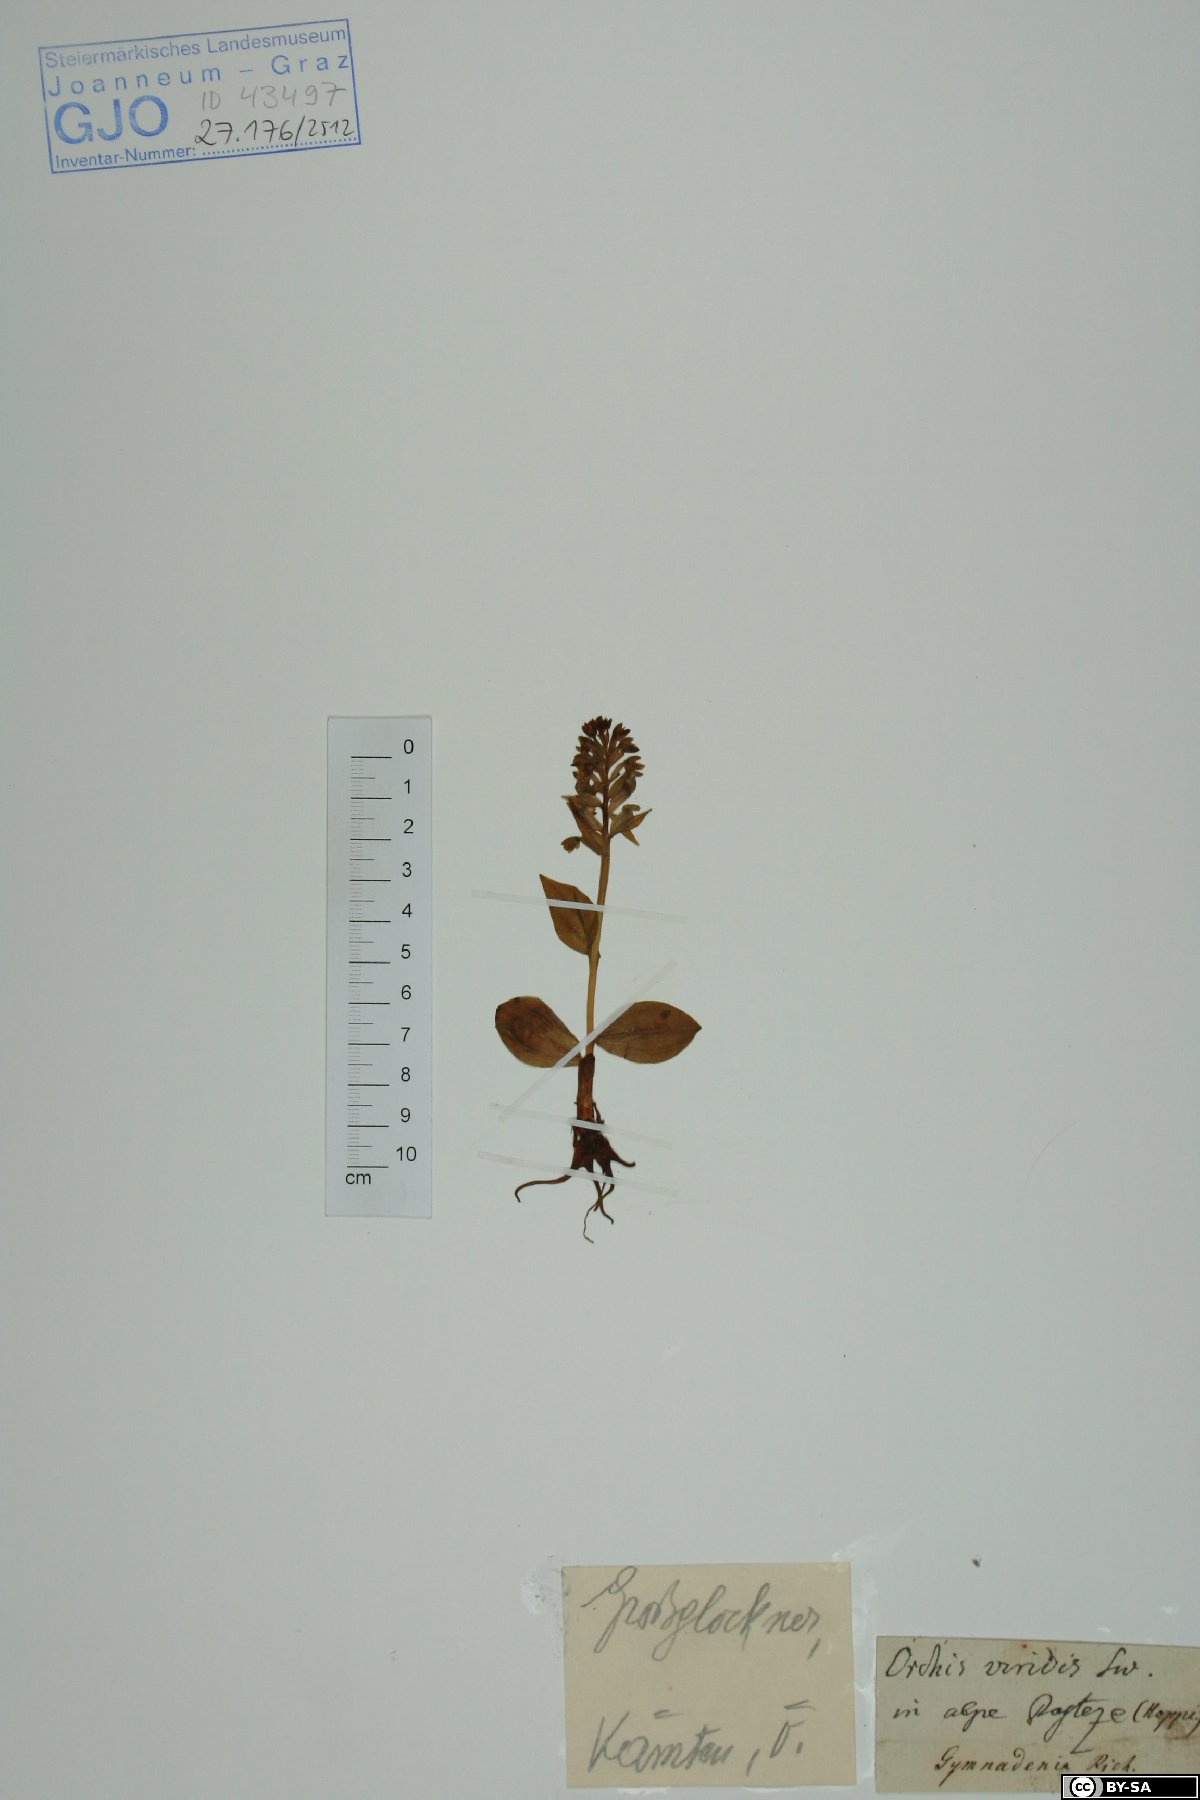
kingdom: Plantae
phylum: Tracheophyta
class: Liliopsida
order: Asparagales
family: Orchidaceae
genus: Dactylorhiza
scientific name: Dactylorhiza viridis
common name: Longbract frog orchid
